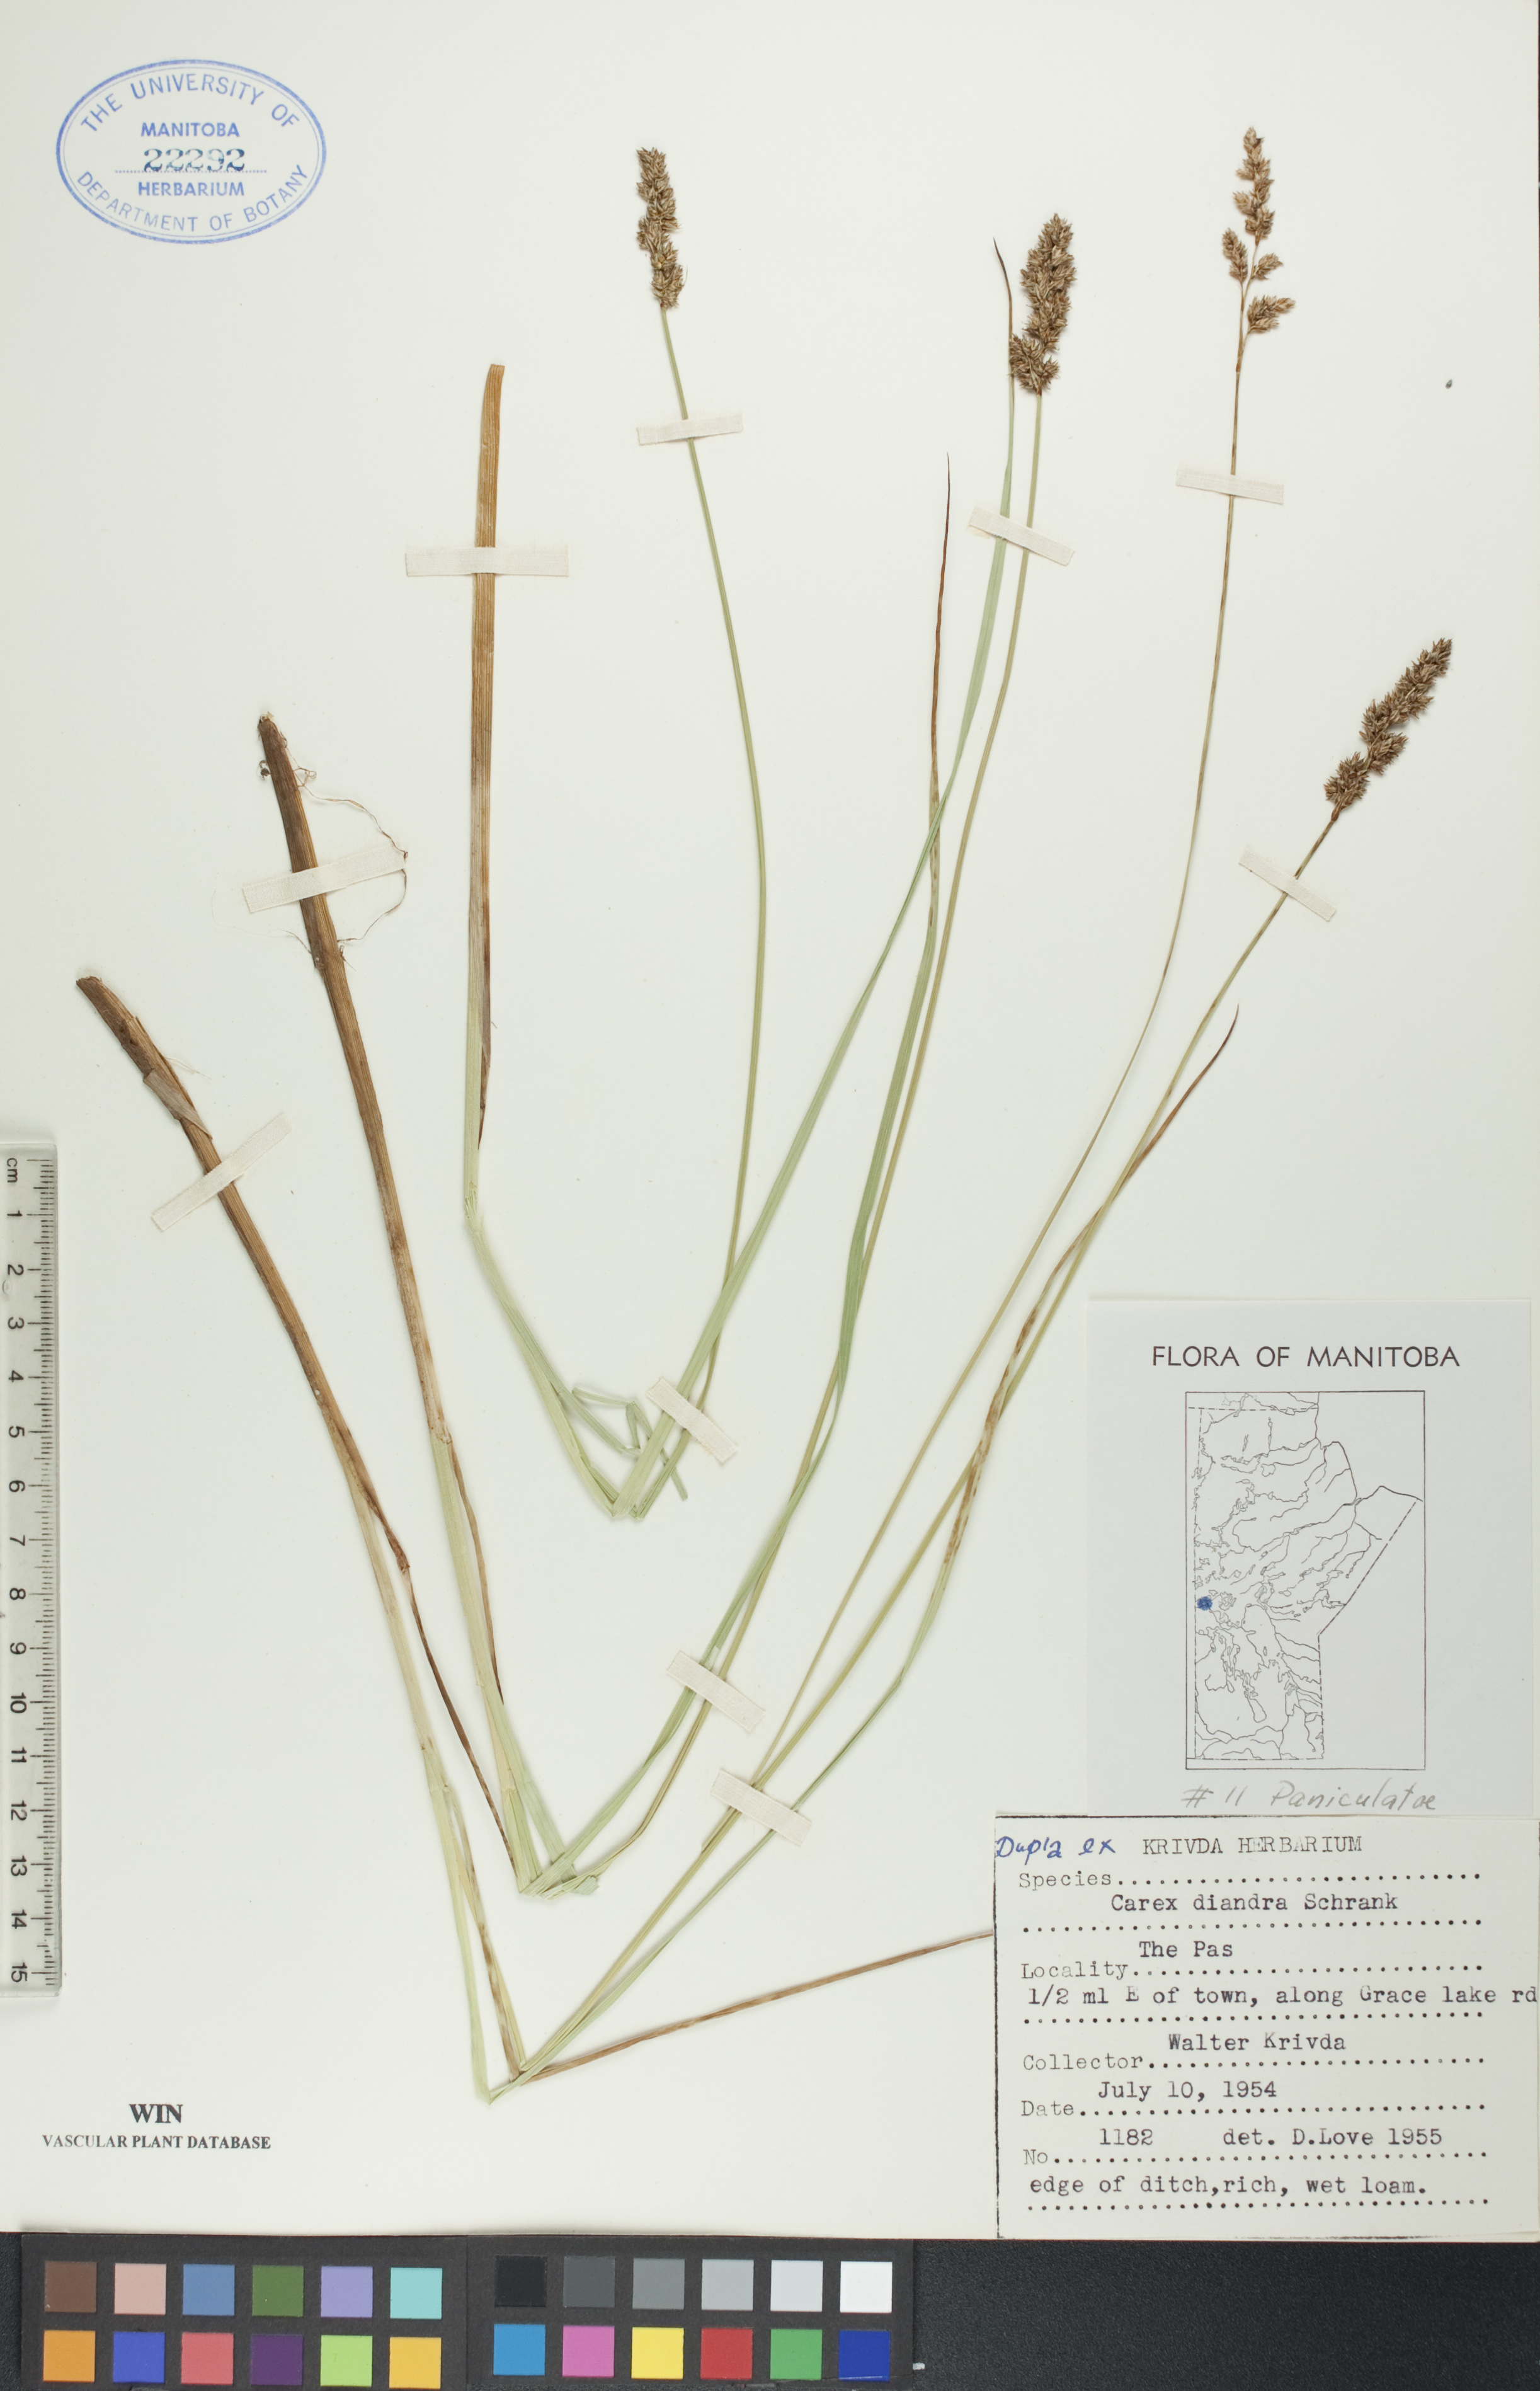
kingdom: Plantae
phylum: Tracheophyta
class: Liliopsida
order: Poales
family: Cyperaceae
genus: Carex
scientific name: Carex diandra
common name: Lesser tussock-sedge
